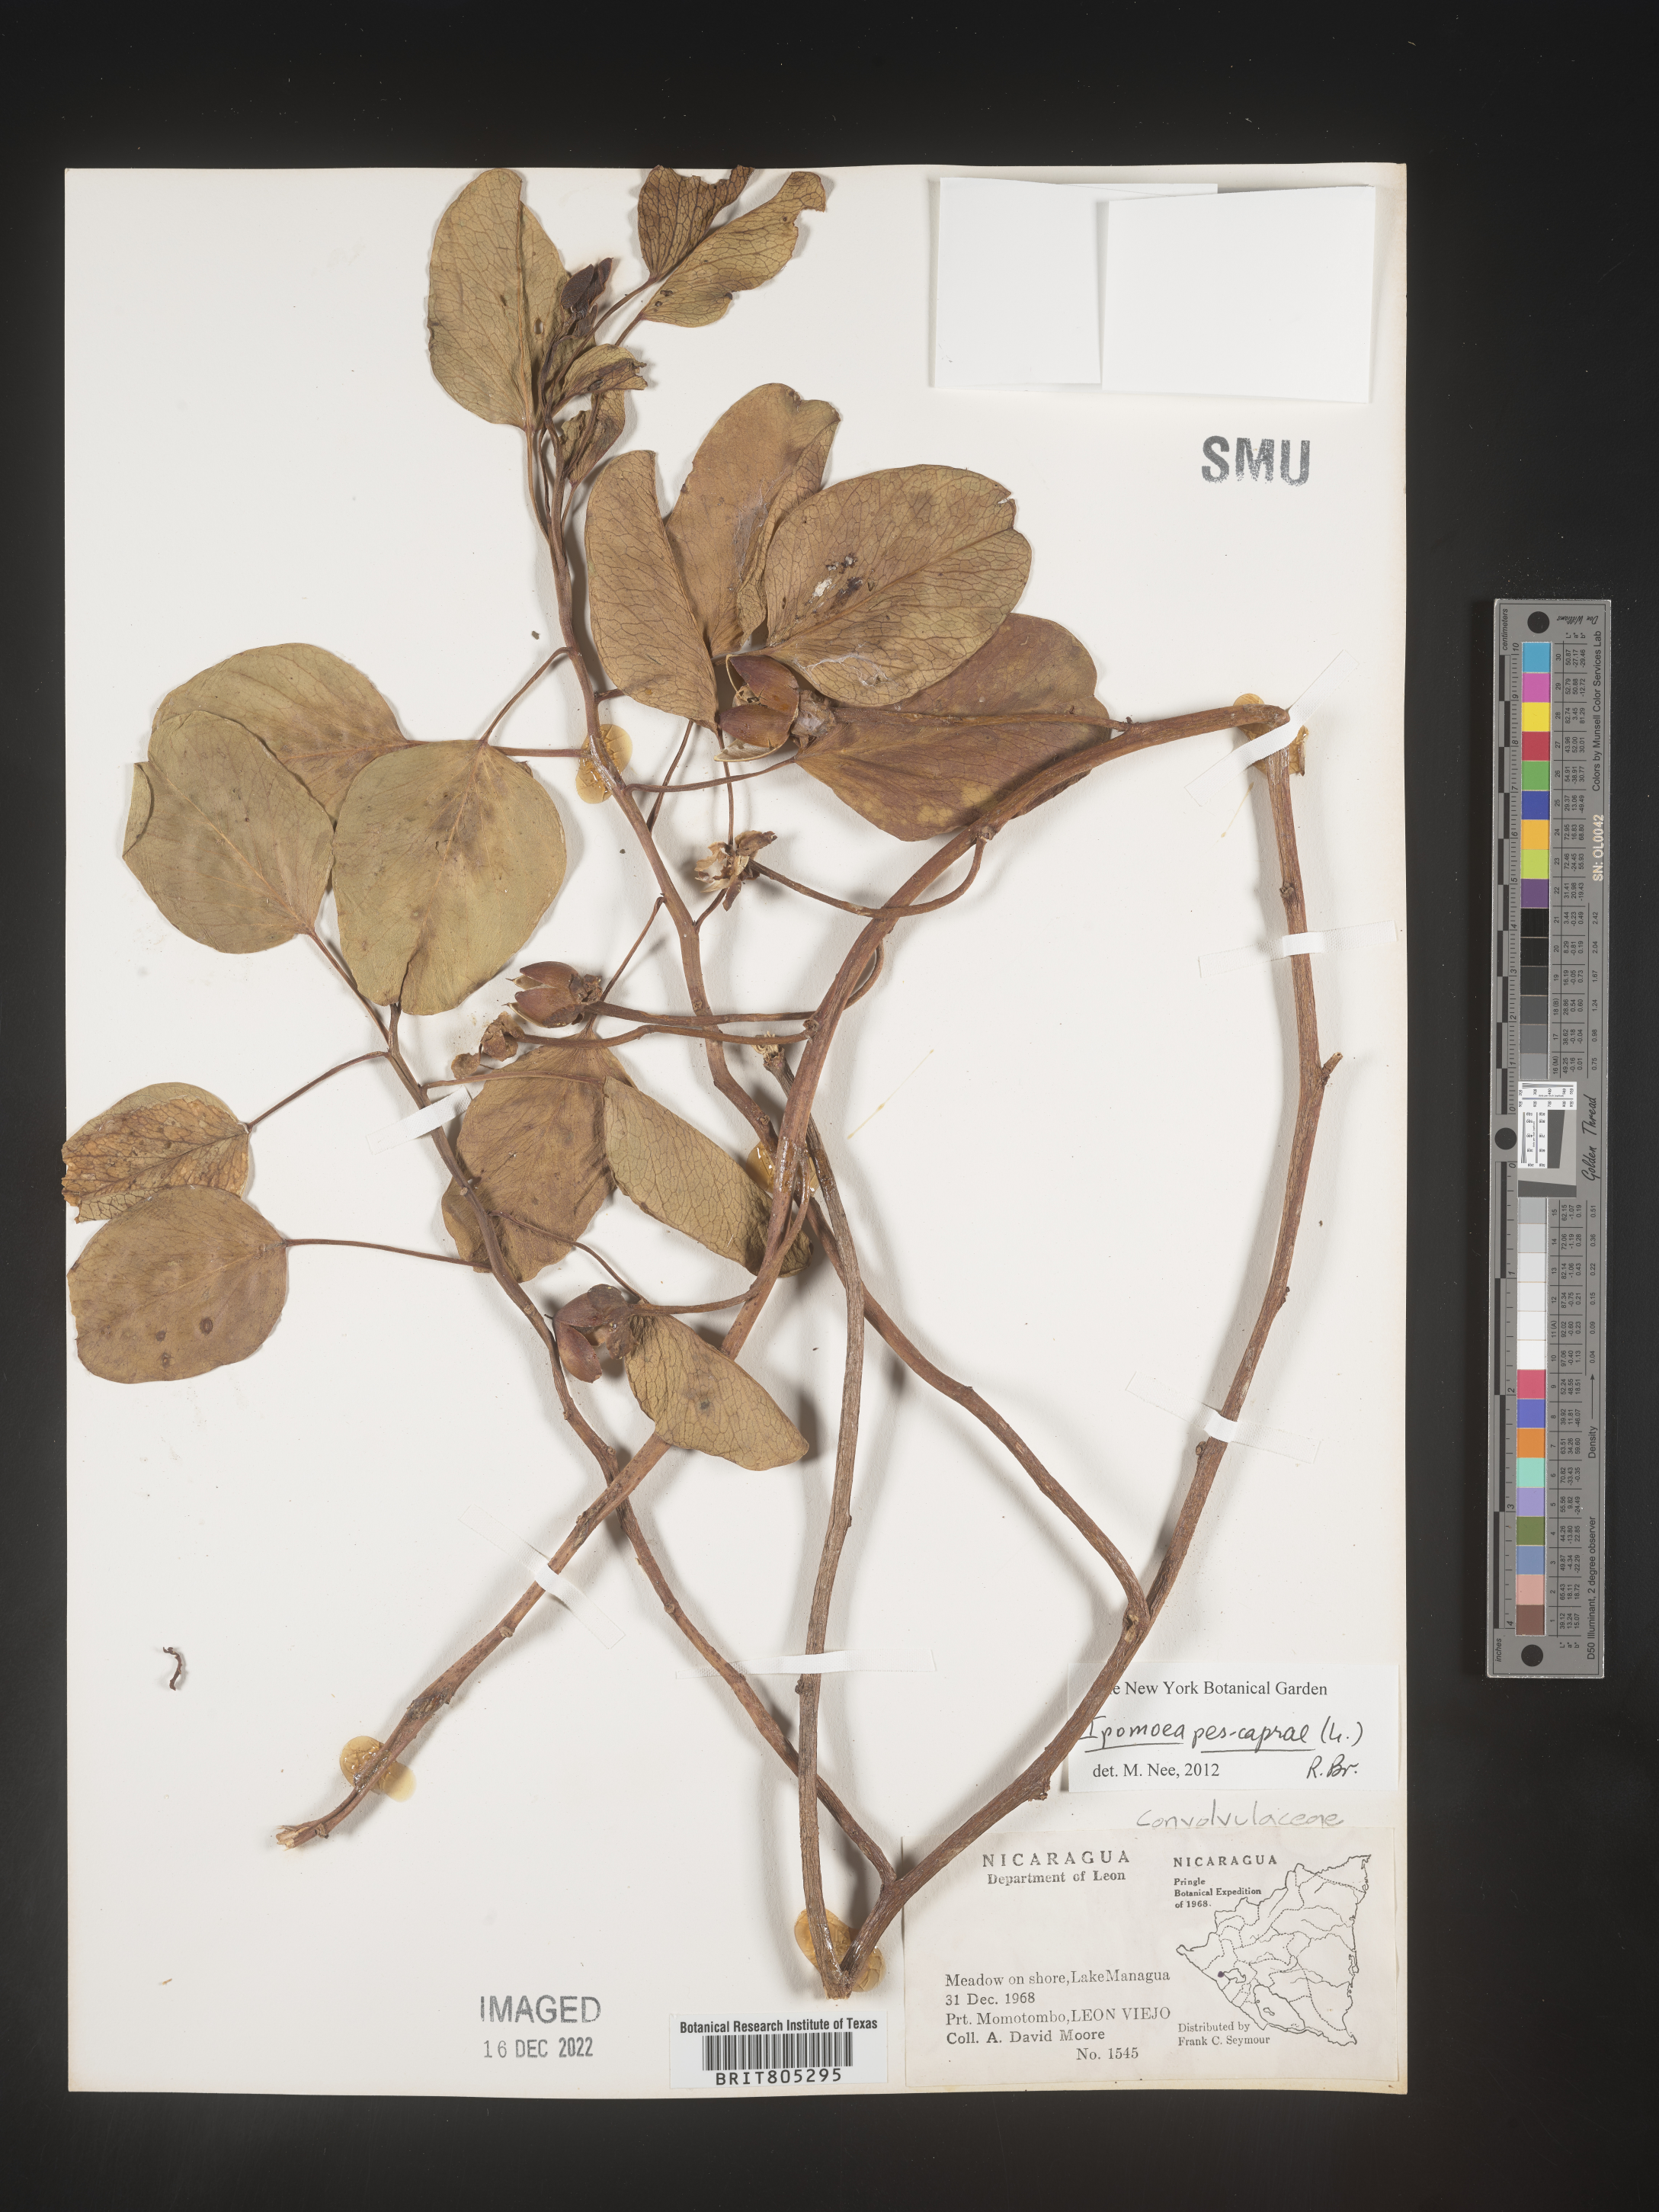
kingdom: Plantae
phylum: Tracheophyta
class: Magnoliopsida
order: Solanales
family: Convolvulaceae
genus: Ipomoea
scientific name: Ipomoea
